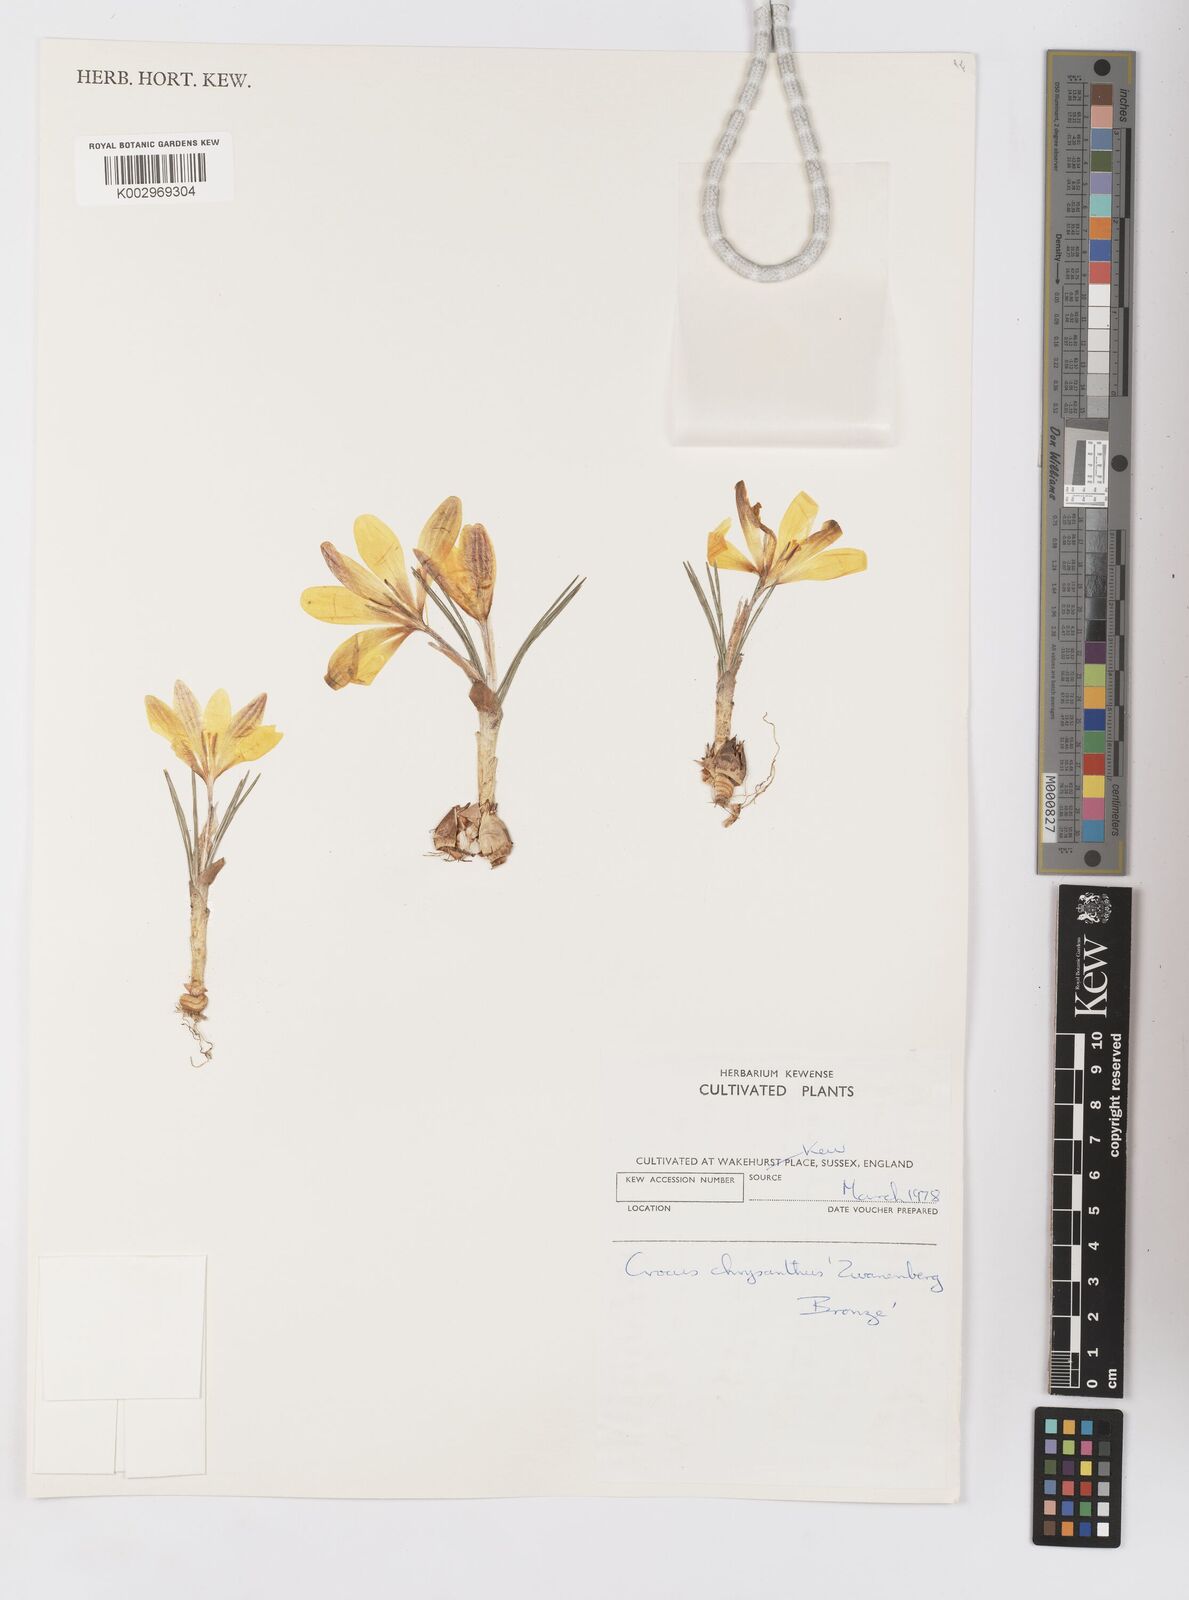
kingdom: Plantae
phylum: Tracheophyta
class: Liliopsida
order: Asparagales
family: Iridaceae
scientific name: Iridaceae
